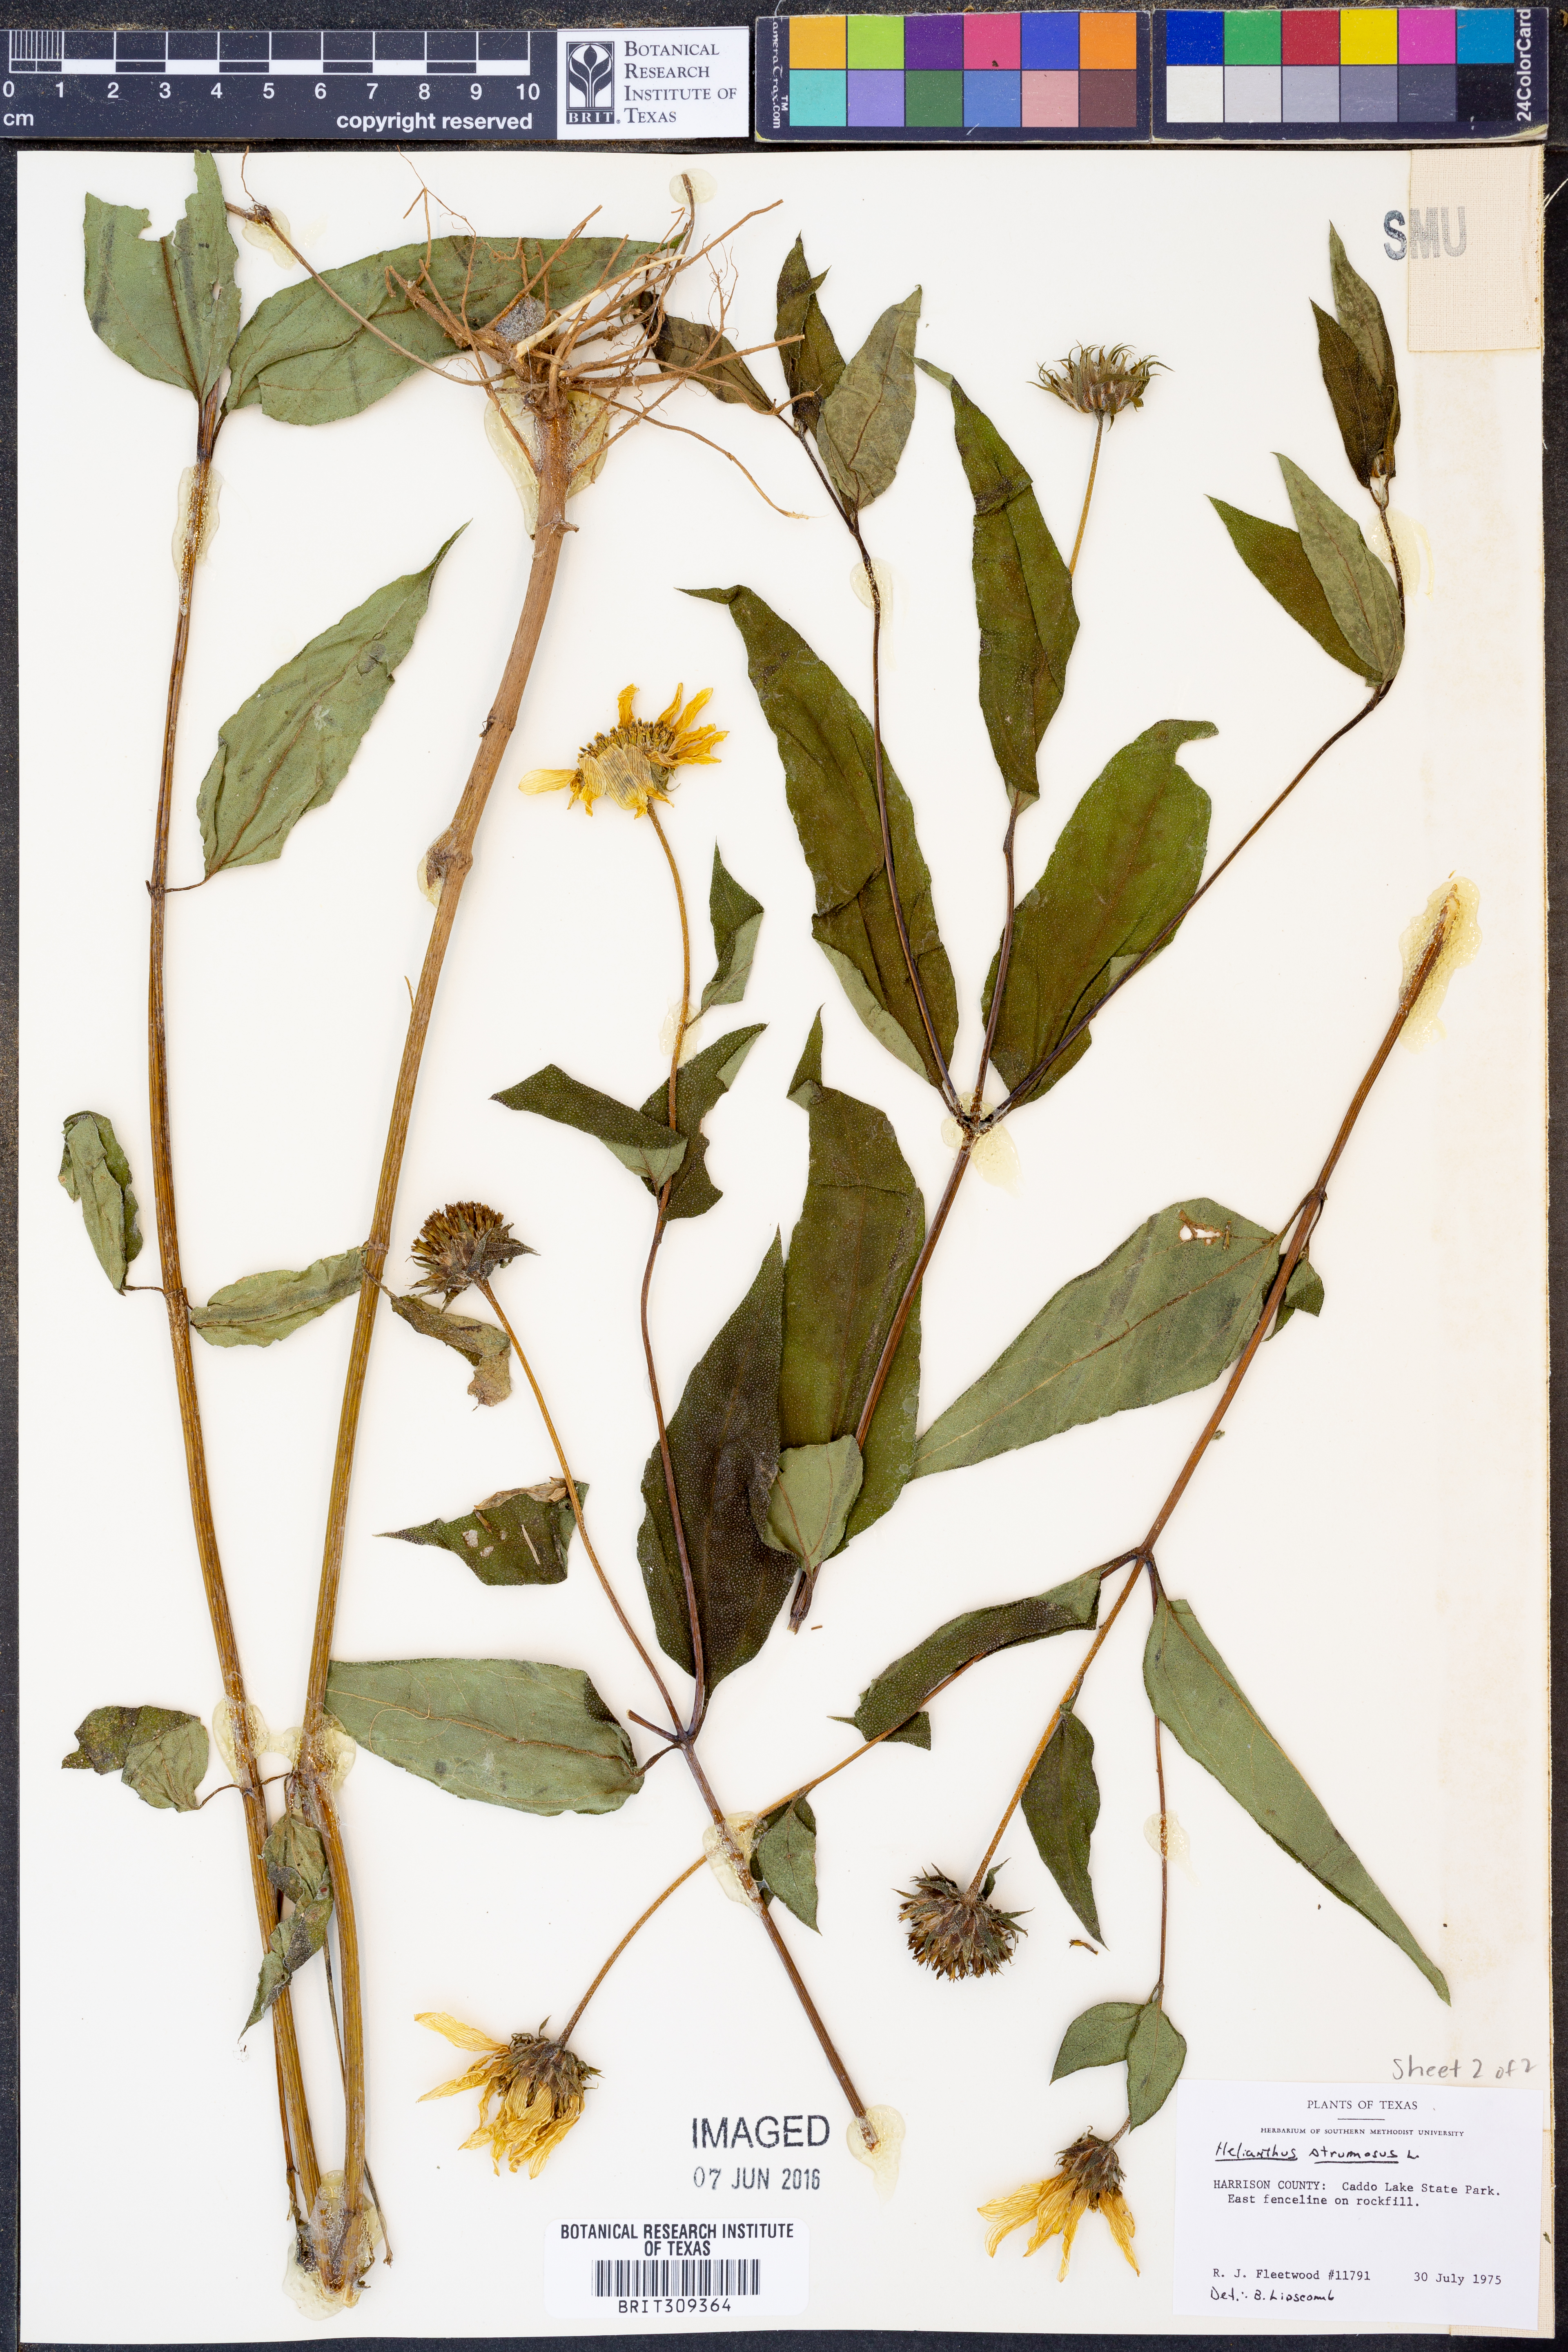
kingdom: Plantae
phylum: Tracheophyta
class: Magnoliopsida
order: Asterales
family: Asteraceae
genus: Helianthus
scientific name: Helianthus strumosus
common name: Pale-leaved sunflower
